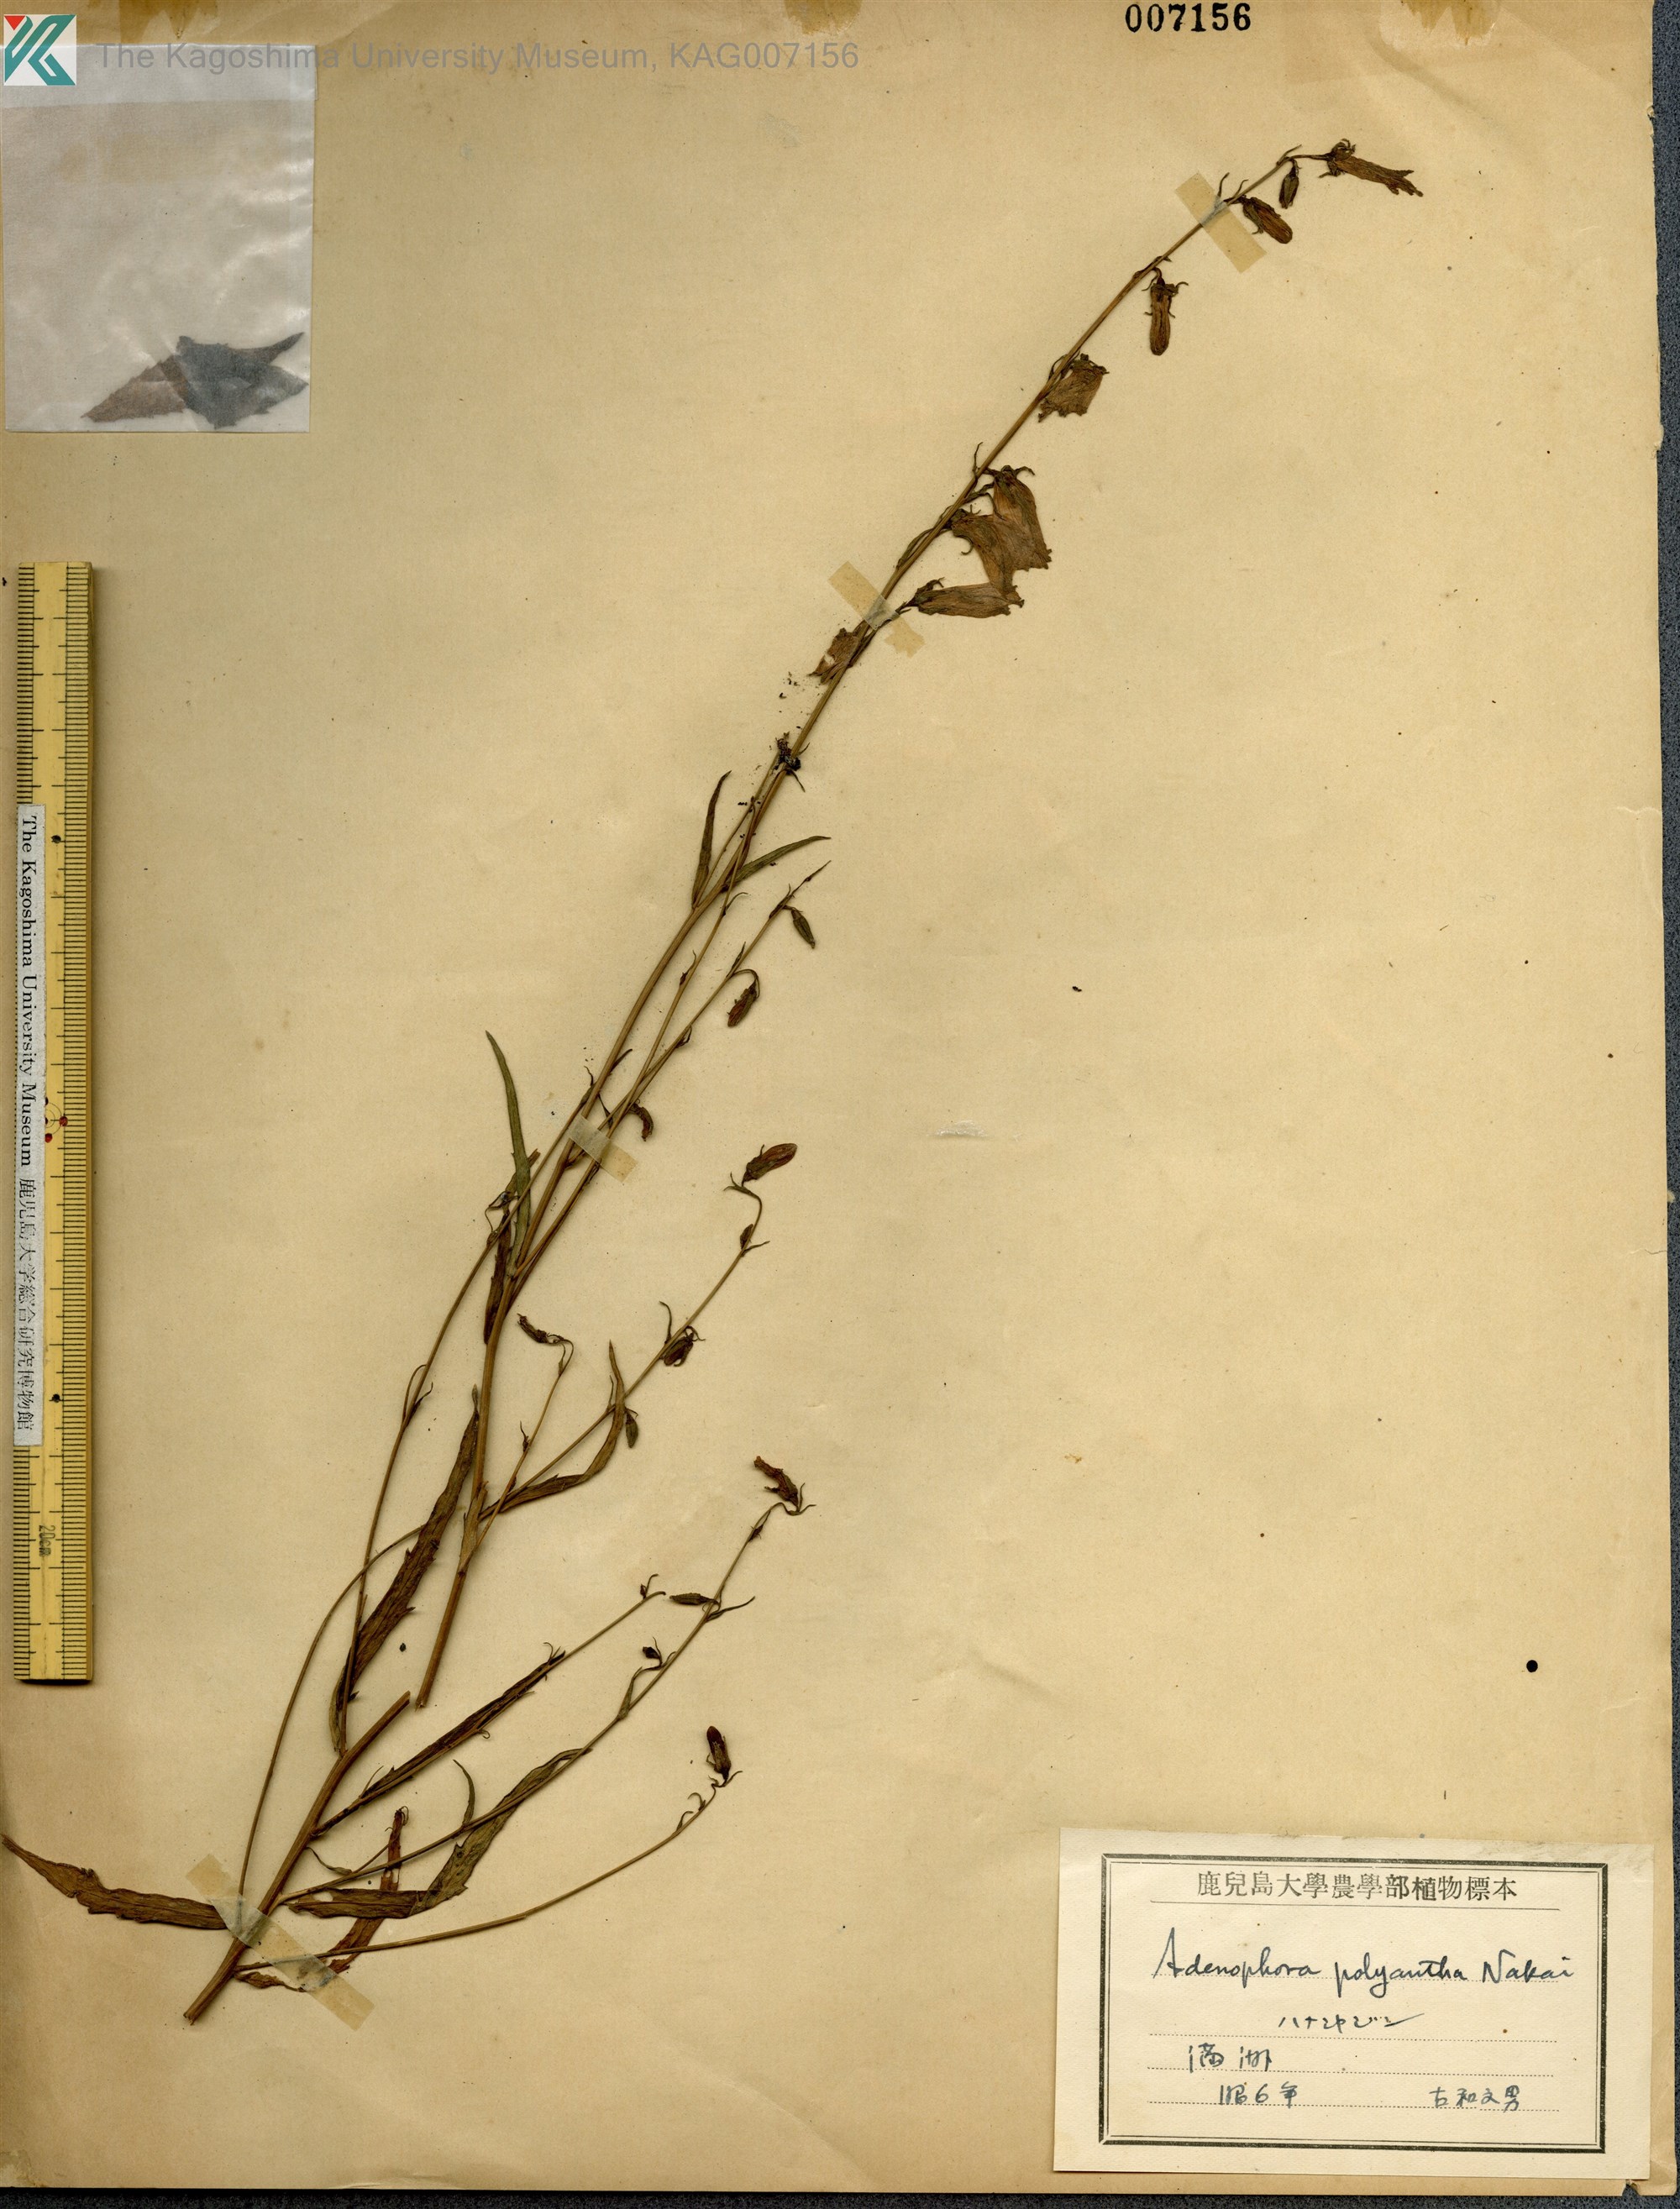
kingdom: Plantae
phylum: Tracheophyta
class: Magnoliopsida
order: Asterales
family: Campanulaceae
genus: Adenophora
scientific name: Adenophora polyantha
